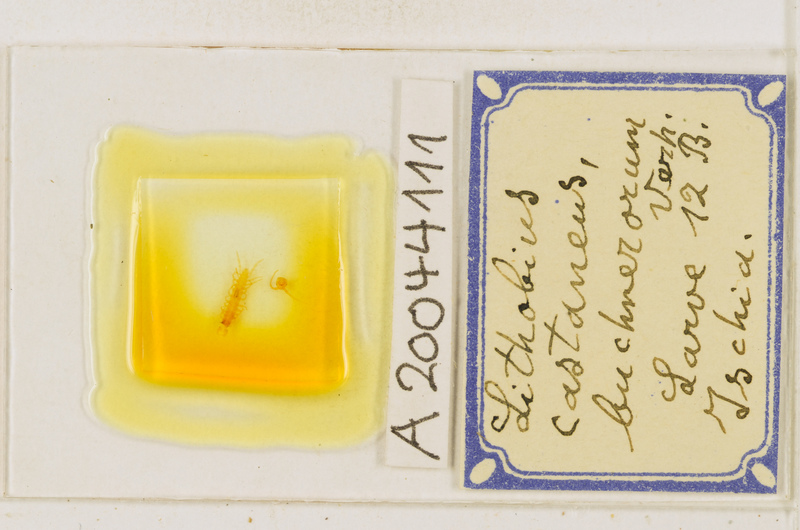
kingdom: Animalia
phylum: Arthropoda
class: Chilopoda
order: Lithobiomorpha
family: Lithobiidae
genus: Lithobius
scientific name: Lithobius castaneus
